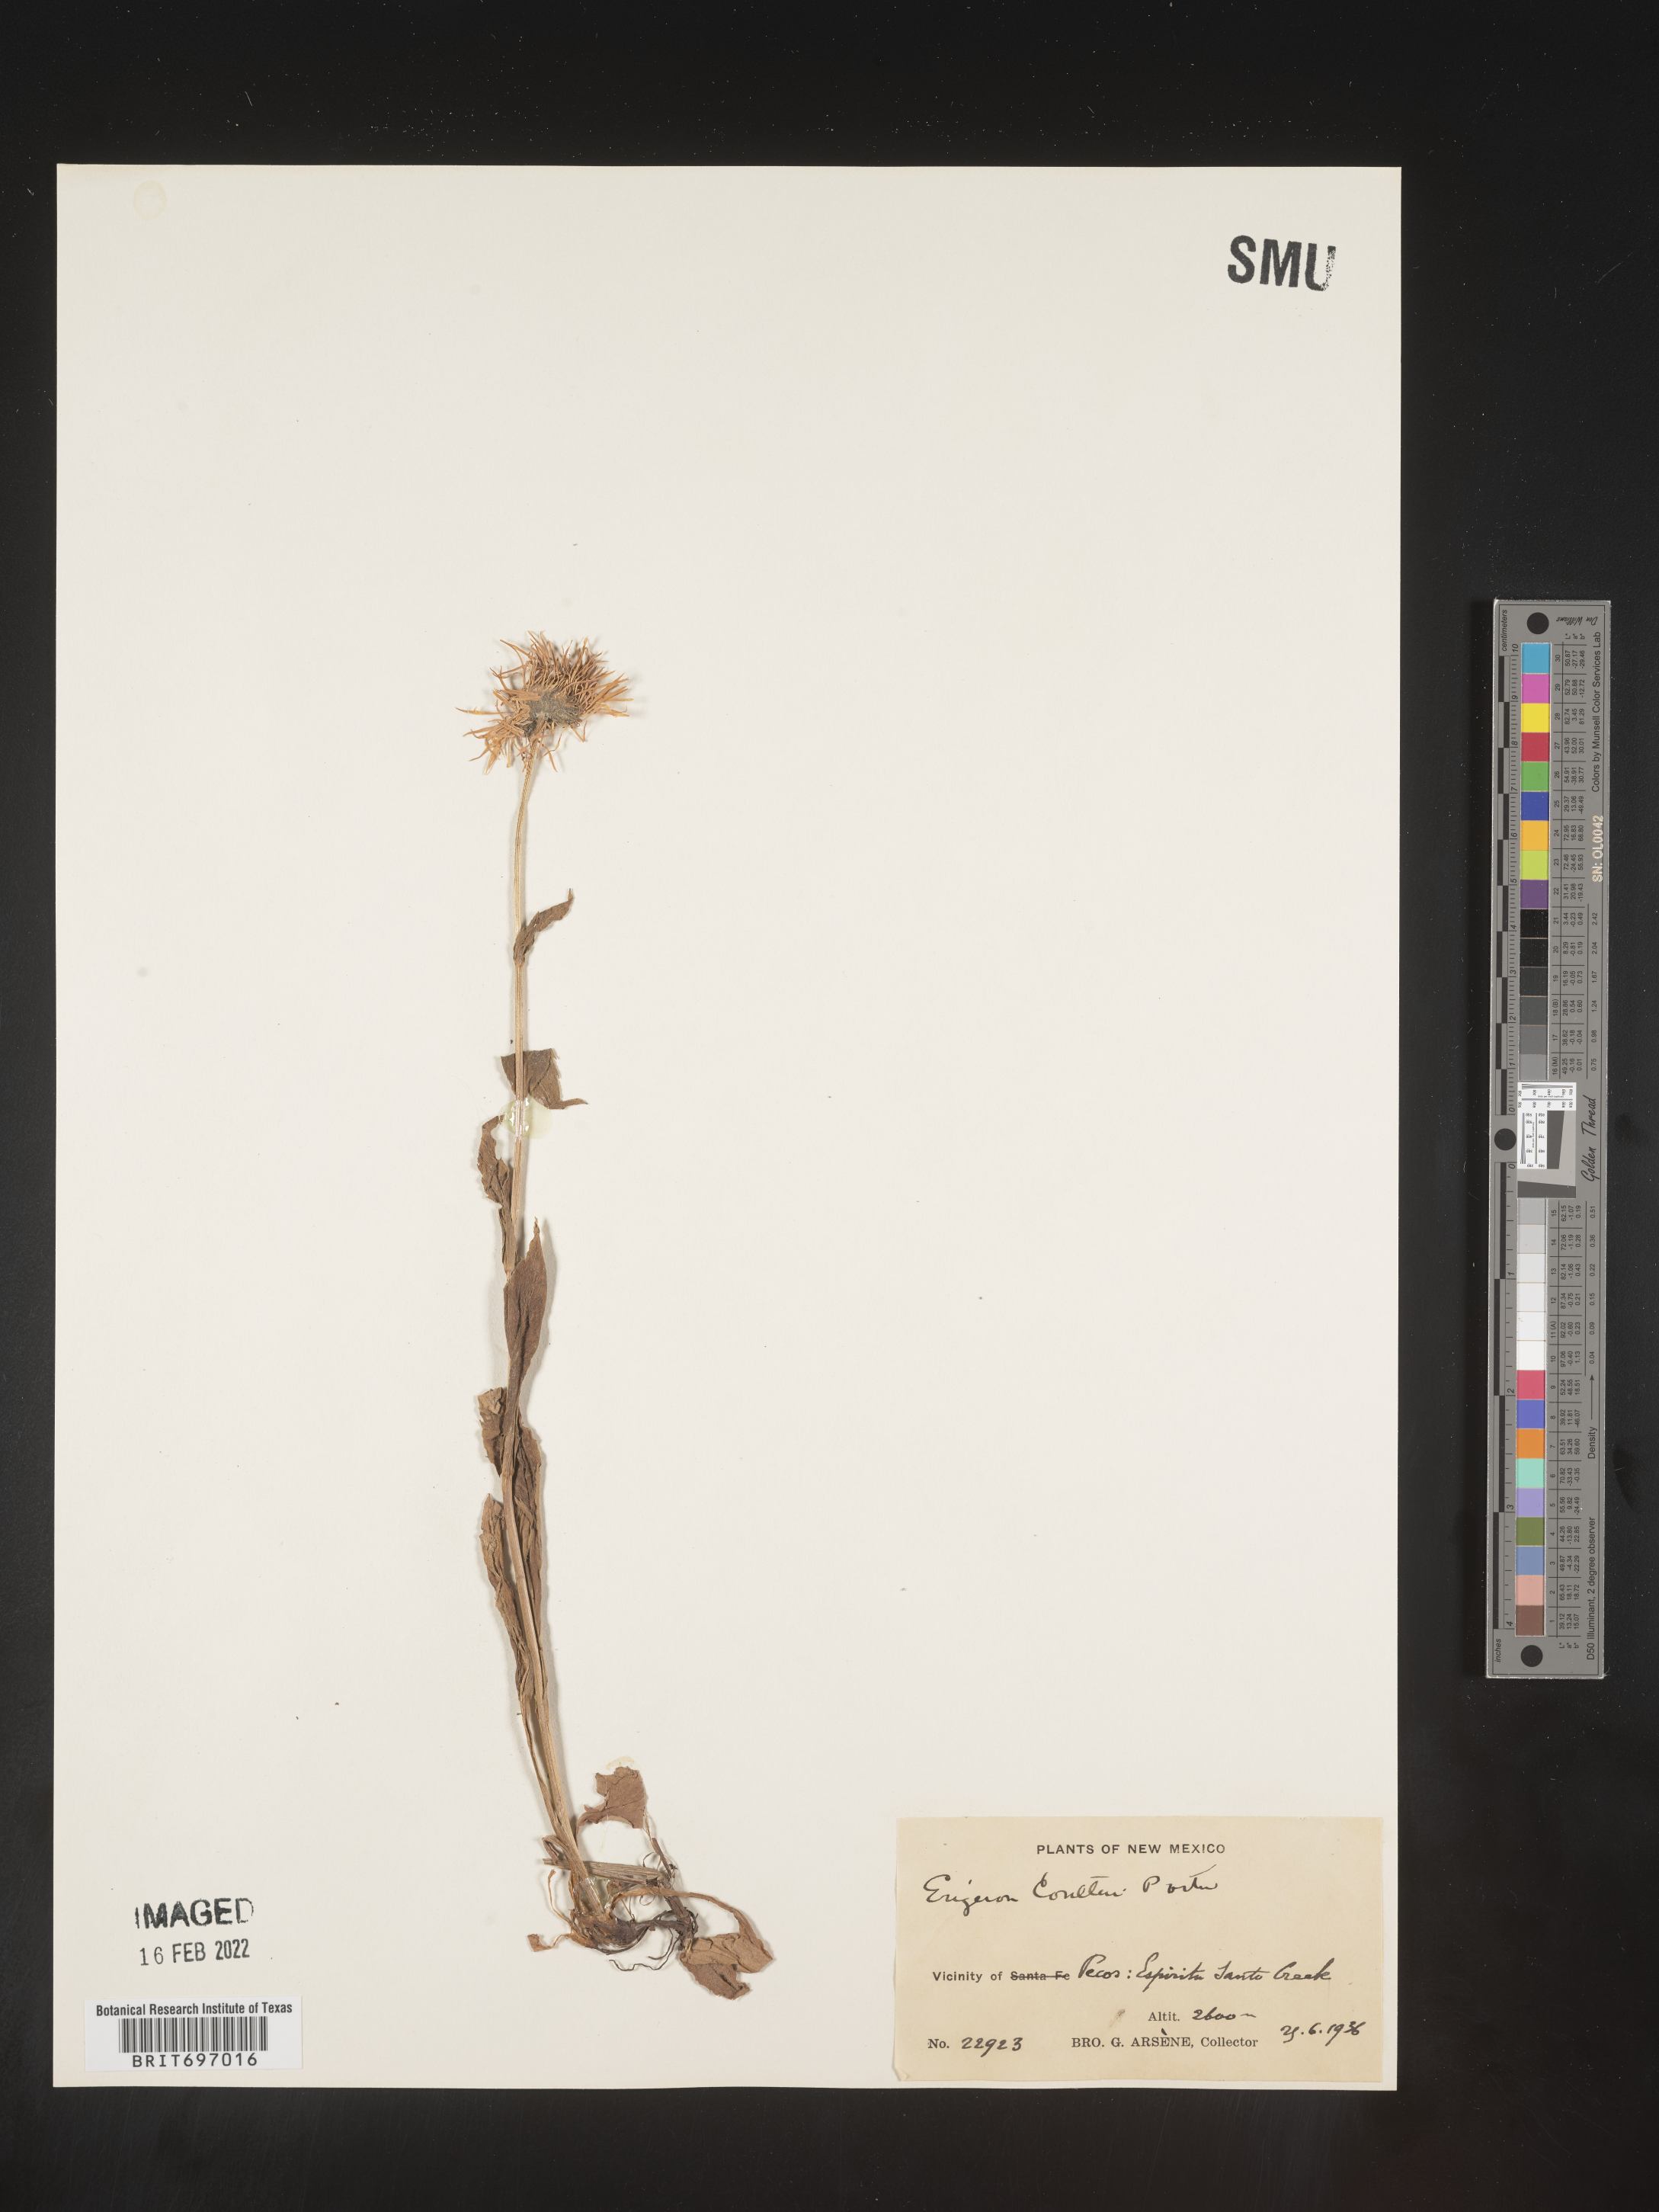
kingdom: Plantae
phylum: Tracheophyta
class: Magnoliopsida
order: Asterales
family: Asteraceae
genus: Erigeron
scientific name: Erigeron coulteri
